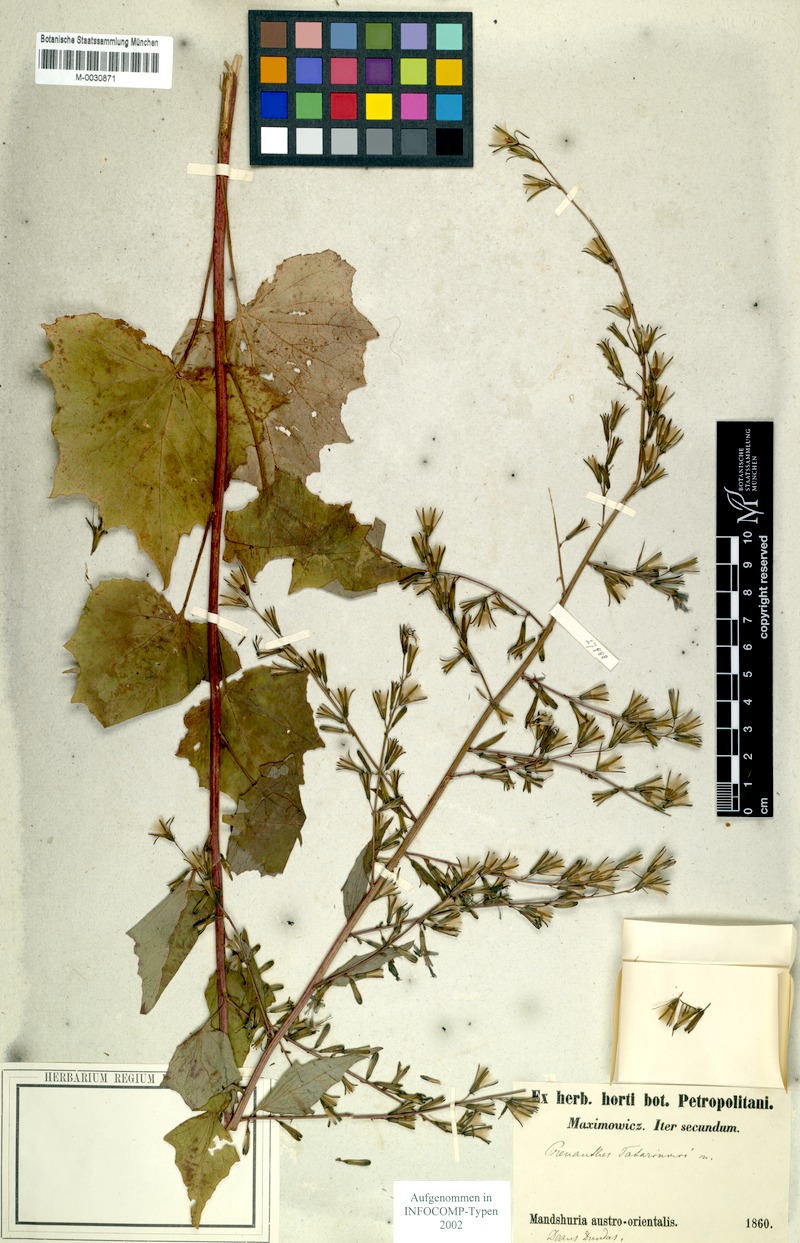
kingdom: Plantae
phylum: Tracheophyta
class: Magnoliopsida
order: Asterales
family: Asteraceae
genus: Nabalus
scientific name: Nabalus tatarinowii
